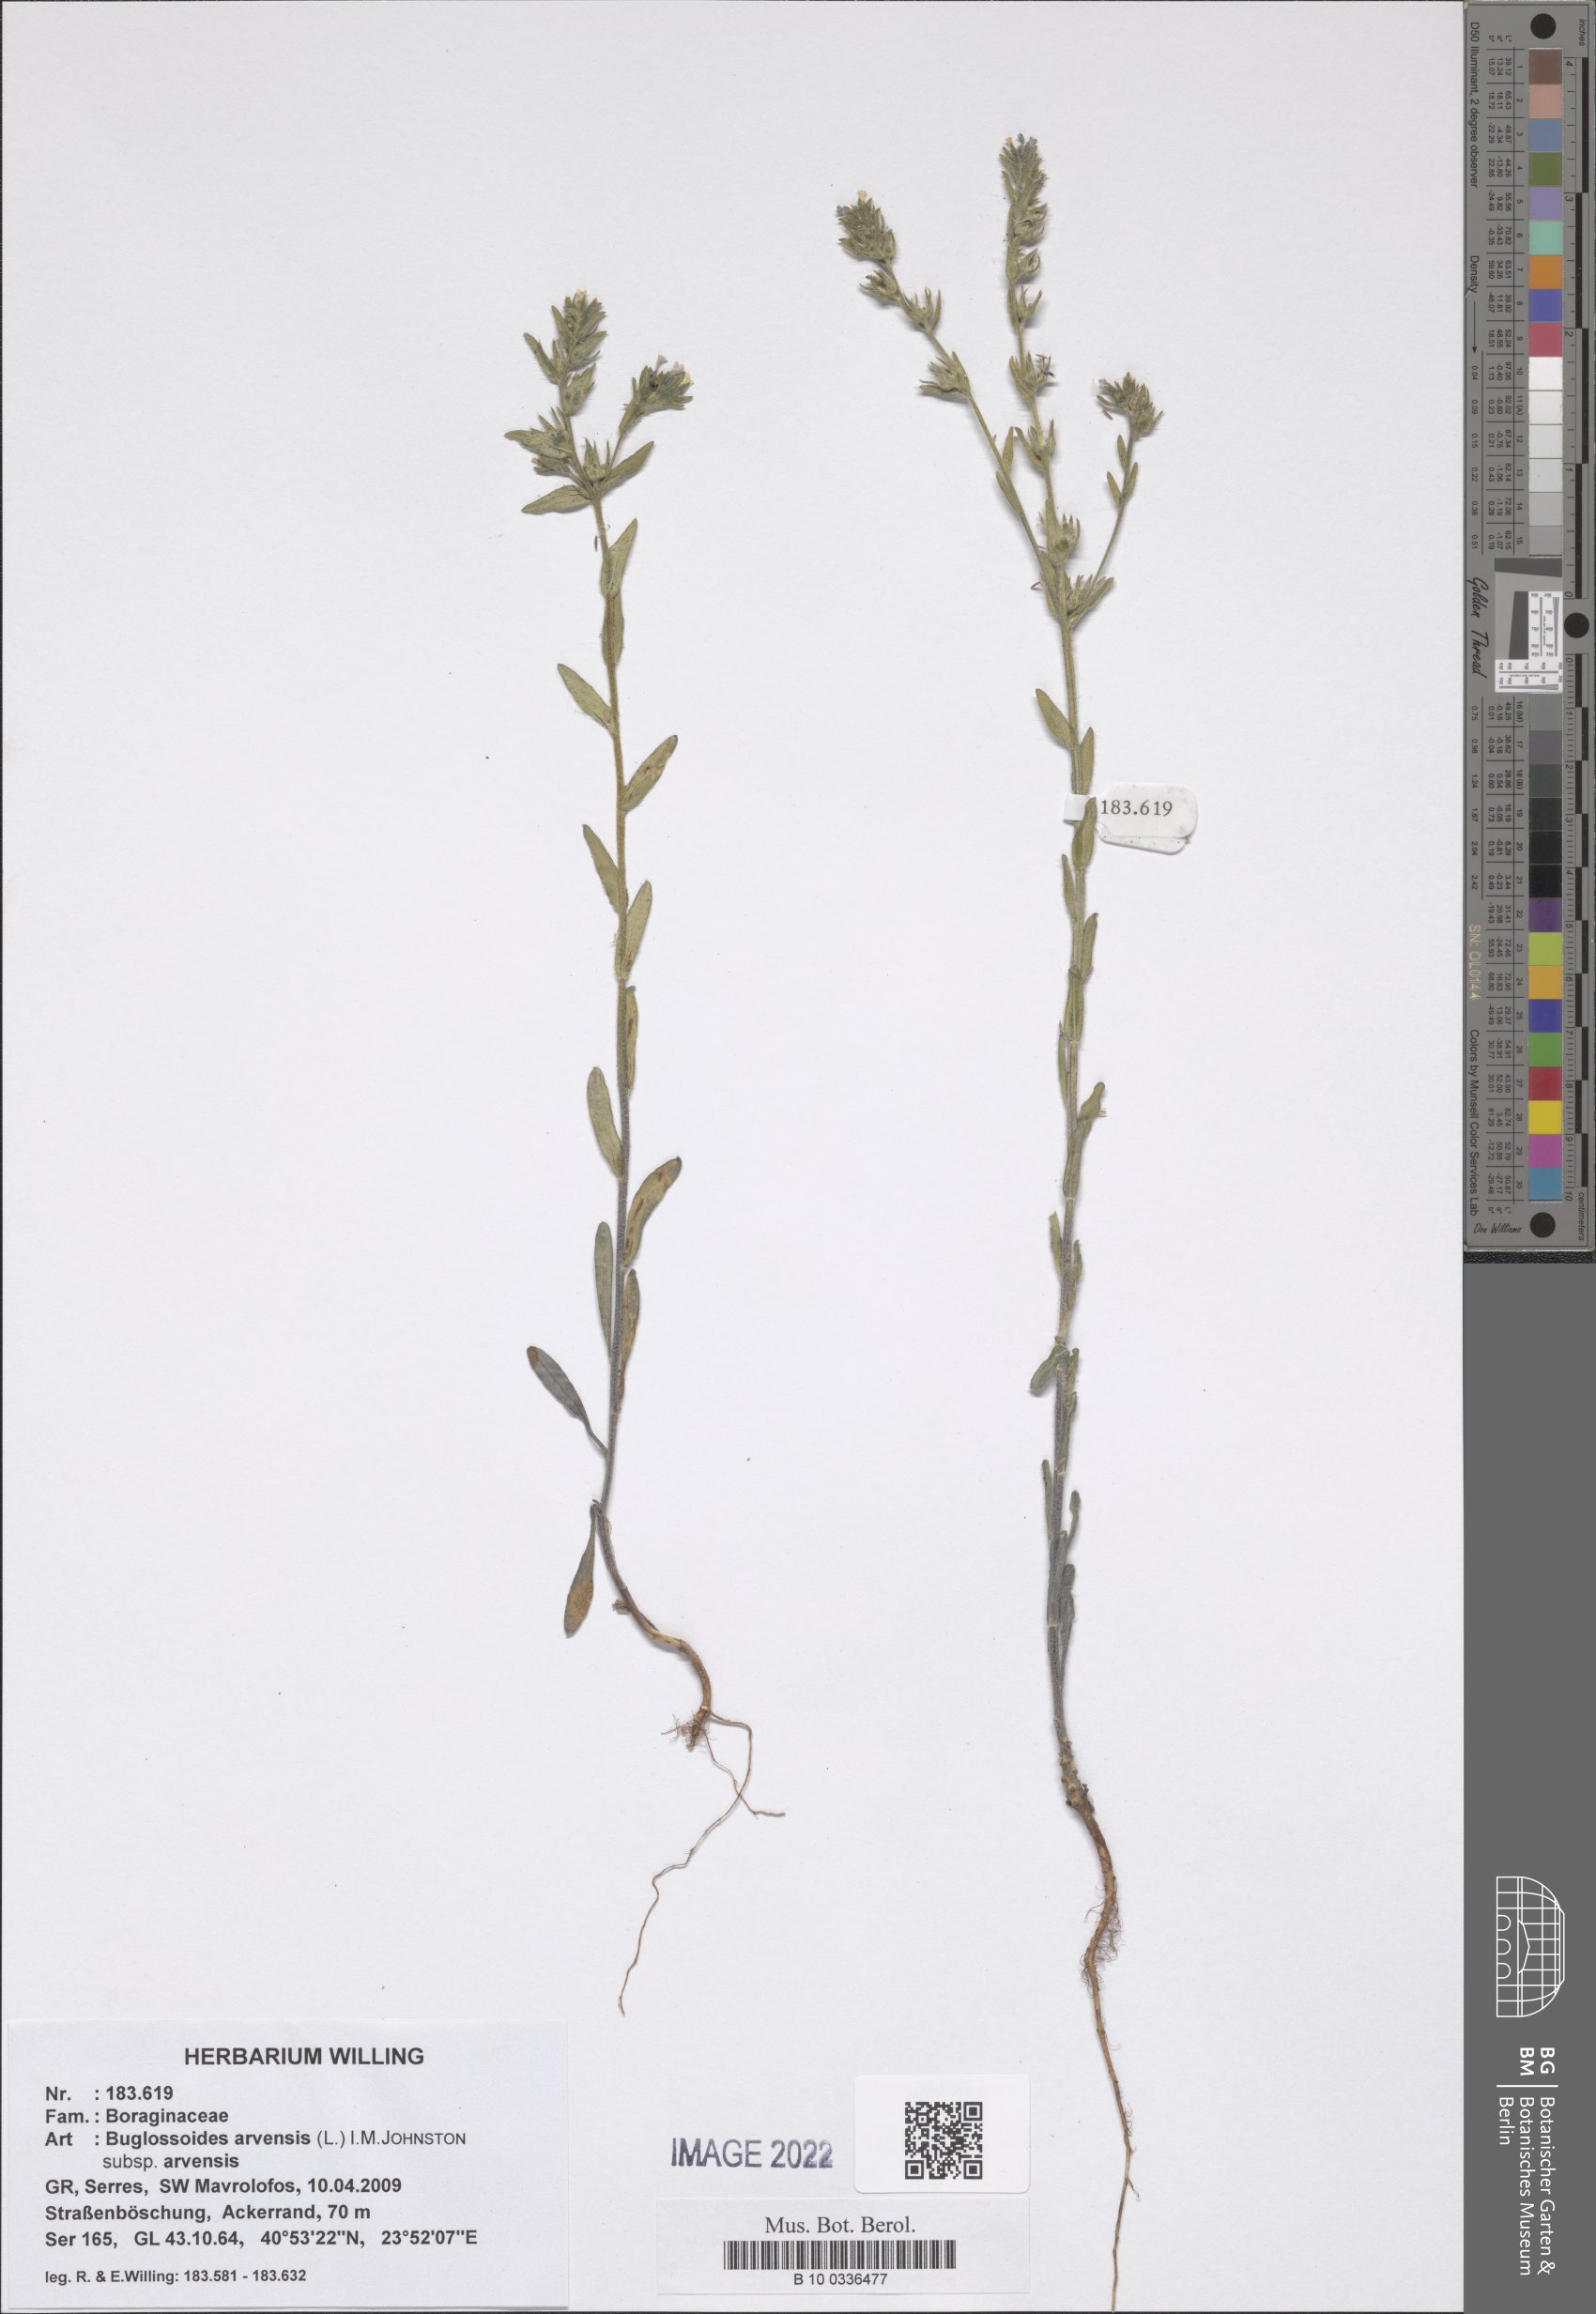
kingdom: Plantae
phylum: Tracheophyta
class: Magnoliopsida
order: Boraginales
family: Boraginaceae
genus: Buglossoides
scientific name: Buglossoides arvensis
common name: Corn gromwell
